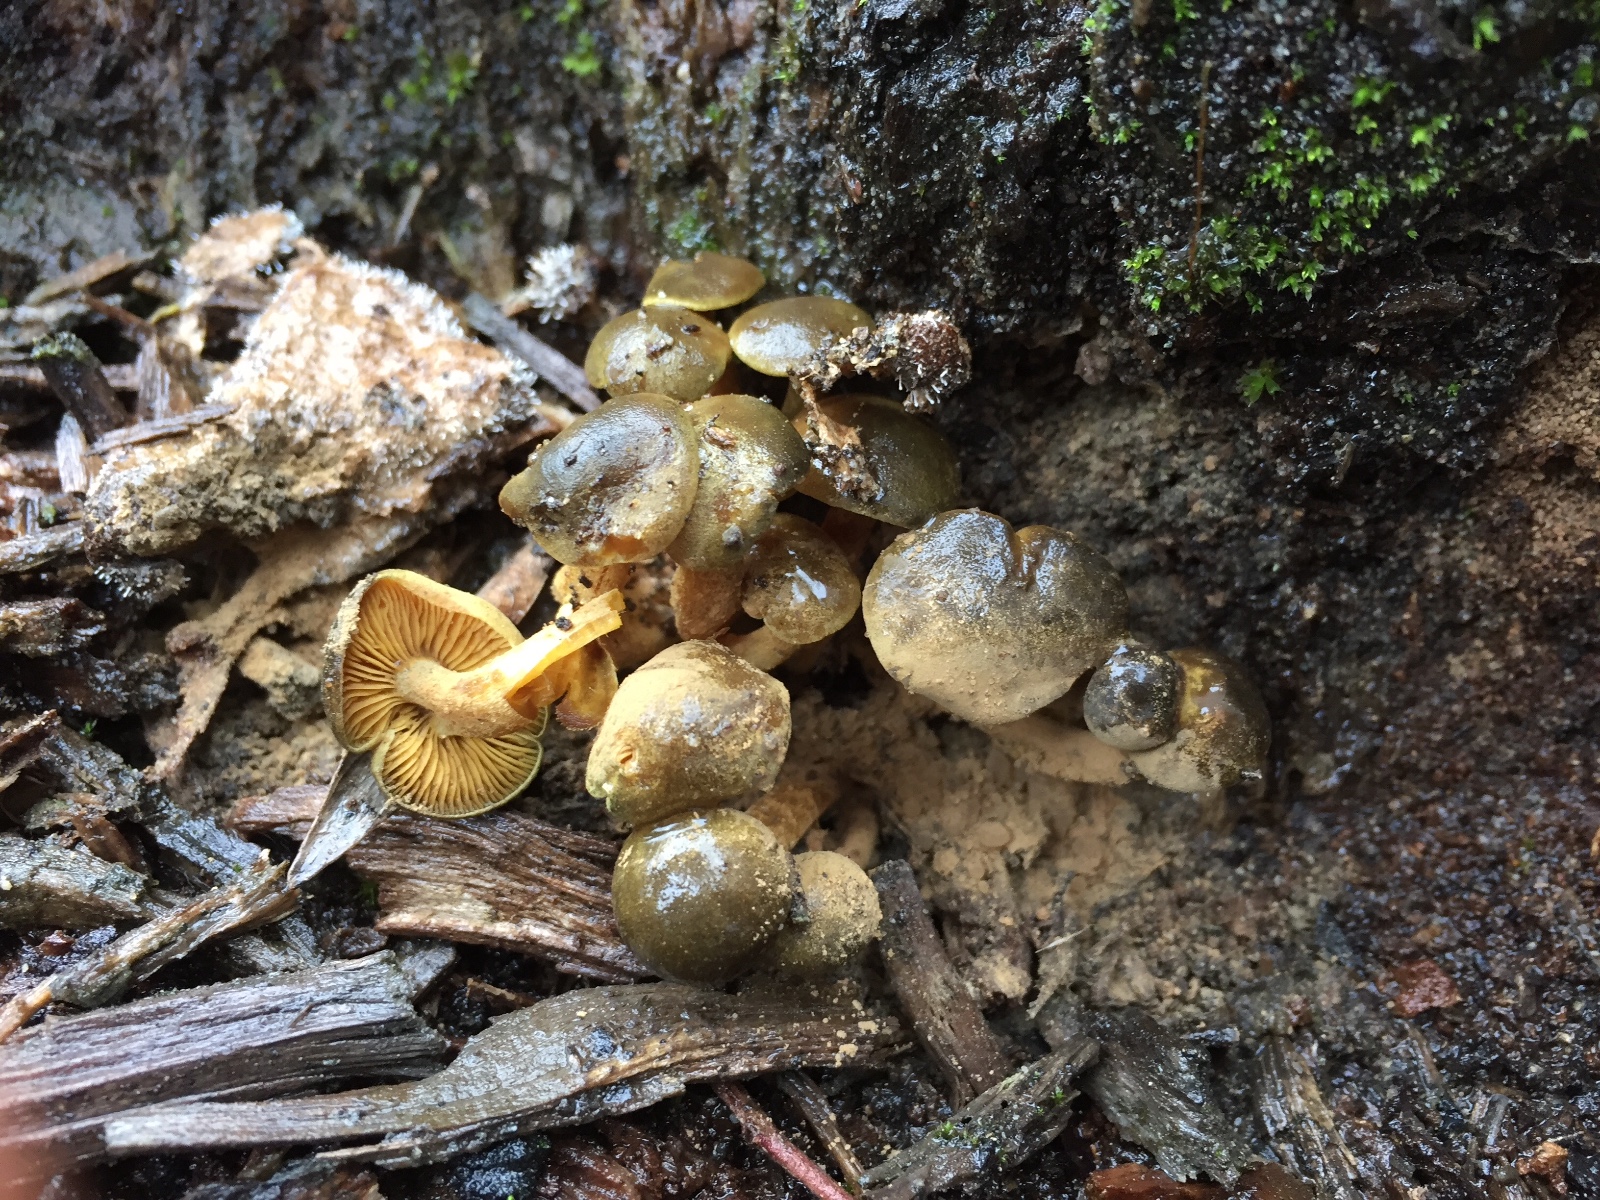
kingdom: Fungi
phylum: Basidiomycota
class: Agaricomycetes
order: Agaricales
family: Callistosporiaceae
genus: Callistosporium
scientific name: Callistosporium luteo-olivaceum
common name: Olive lute
